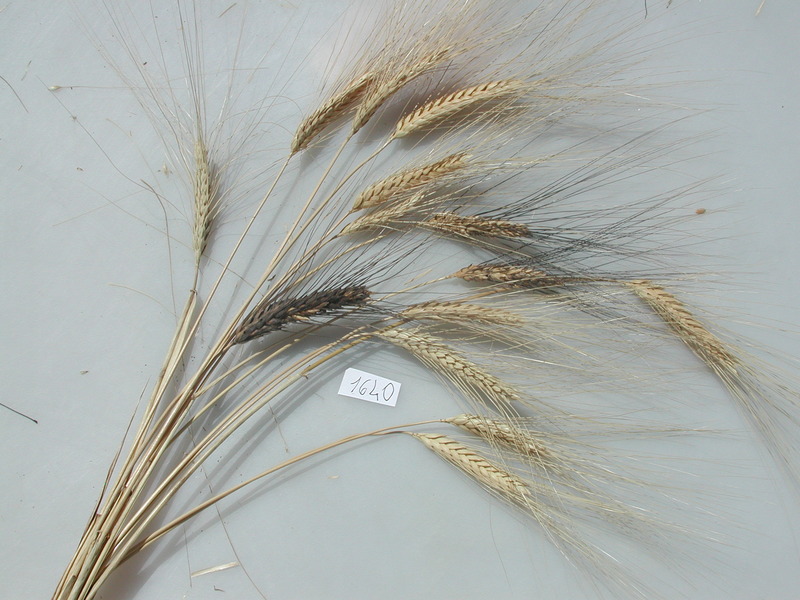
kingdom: Plantae
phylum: Tracheophyta
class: Liliopsida
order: Poales
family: Poaceae
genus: Triticum
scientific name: Triticum turgidum
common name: Wheat
